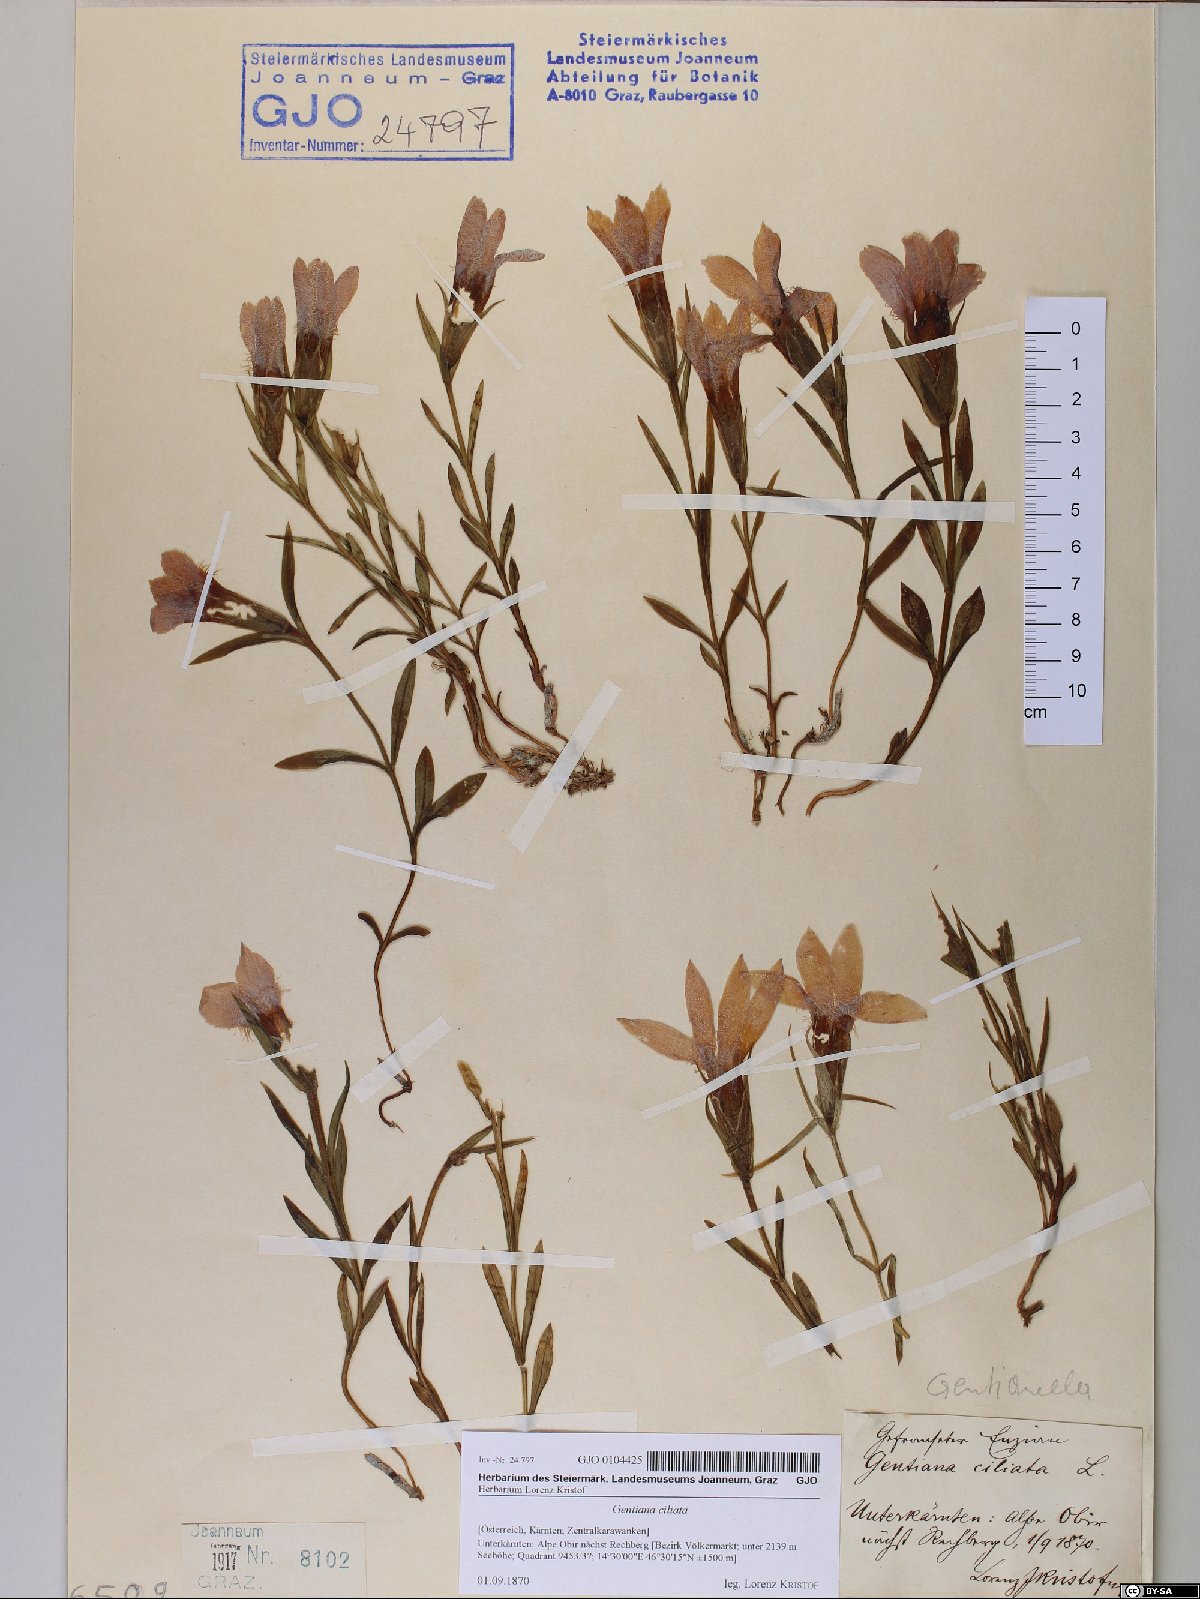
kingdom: Plantae
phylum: Tracheophyta
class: Magnoliopsida
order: Gentianales
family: Gentianaceae
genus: Gentianopsis
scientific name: Gentianopsis ciliata
